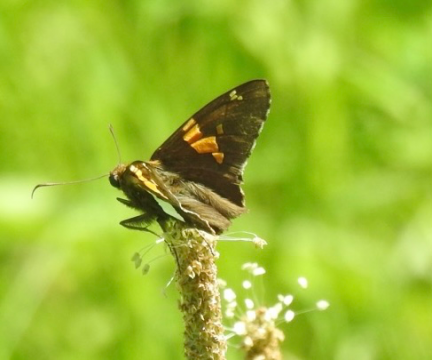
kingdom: Animalia
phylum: Arthropoda
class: Insecta
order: Lepidoptera
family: Hesperiidae
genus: Epargyreus
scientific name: Epargyreus clarus
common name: Silver-spotted Skipper
